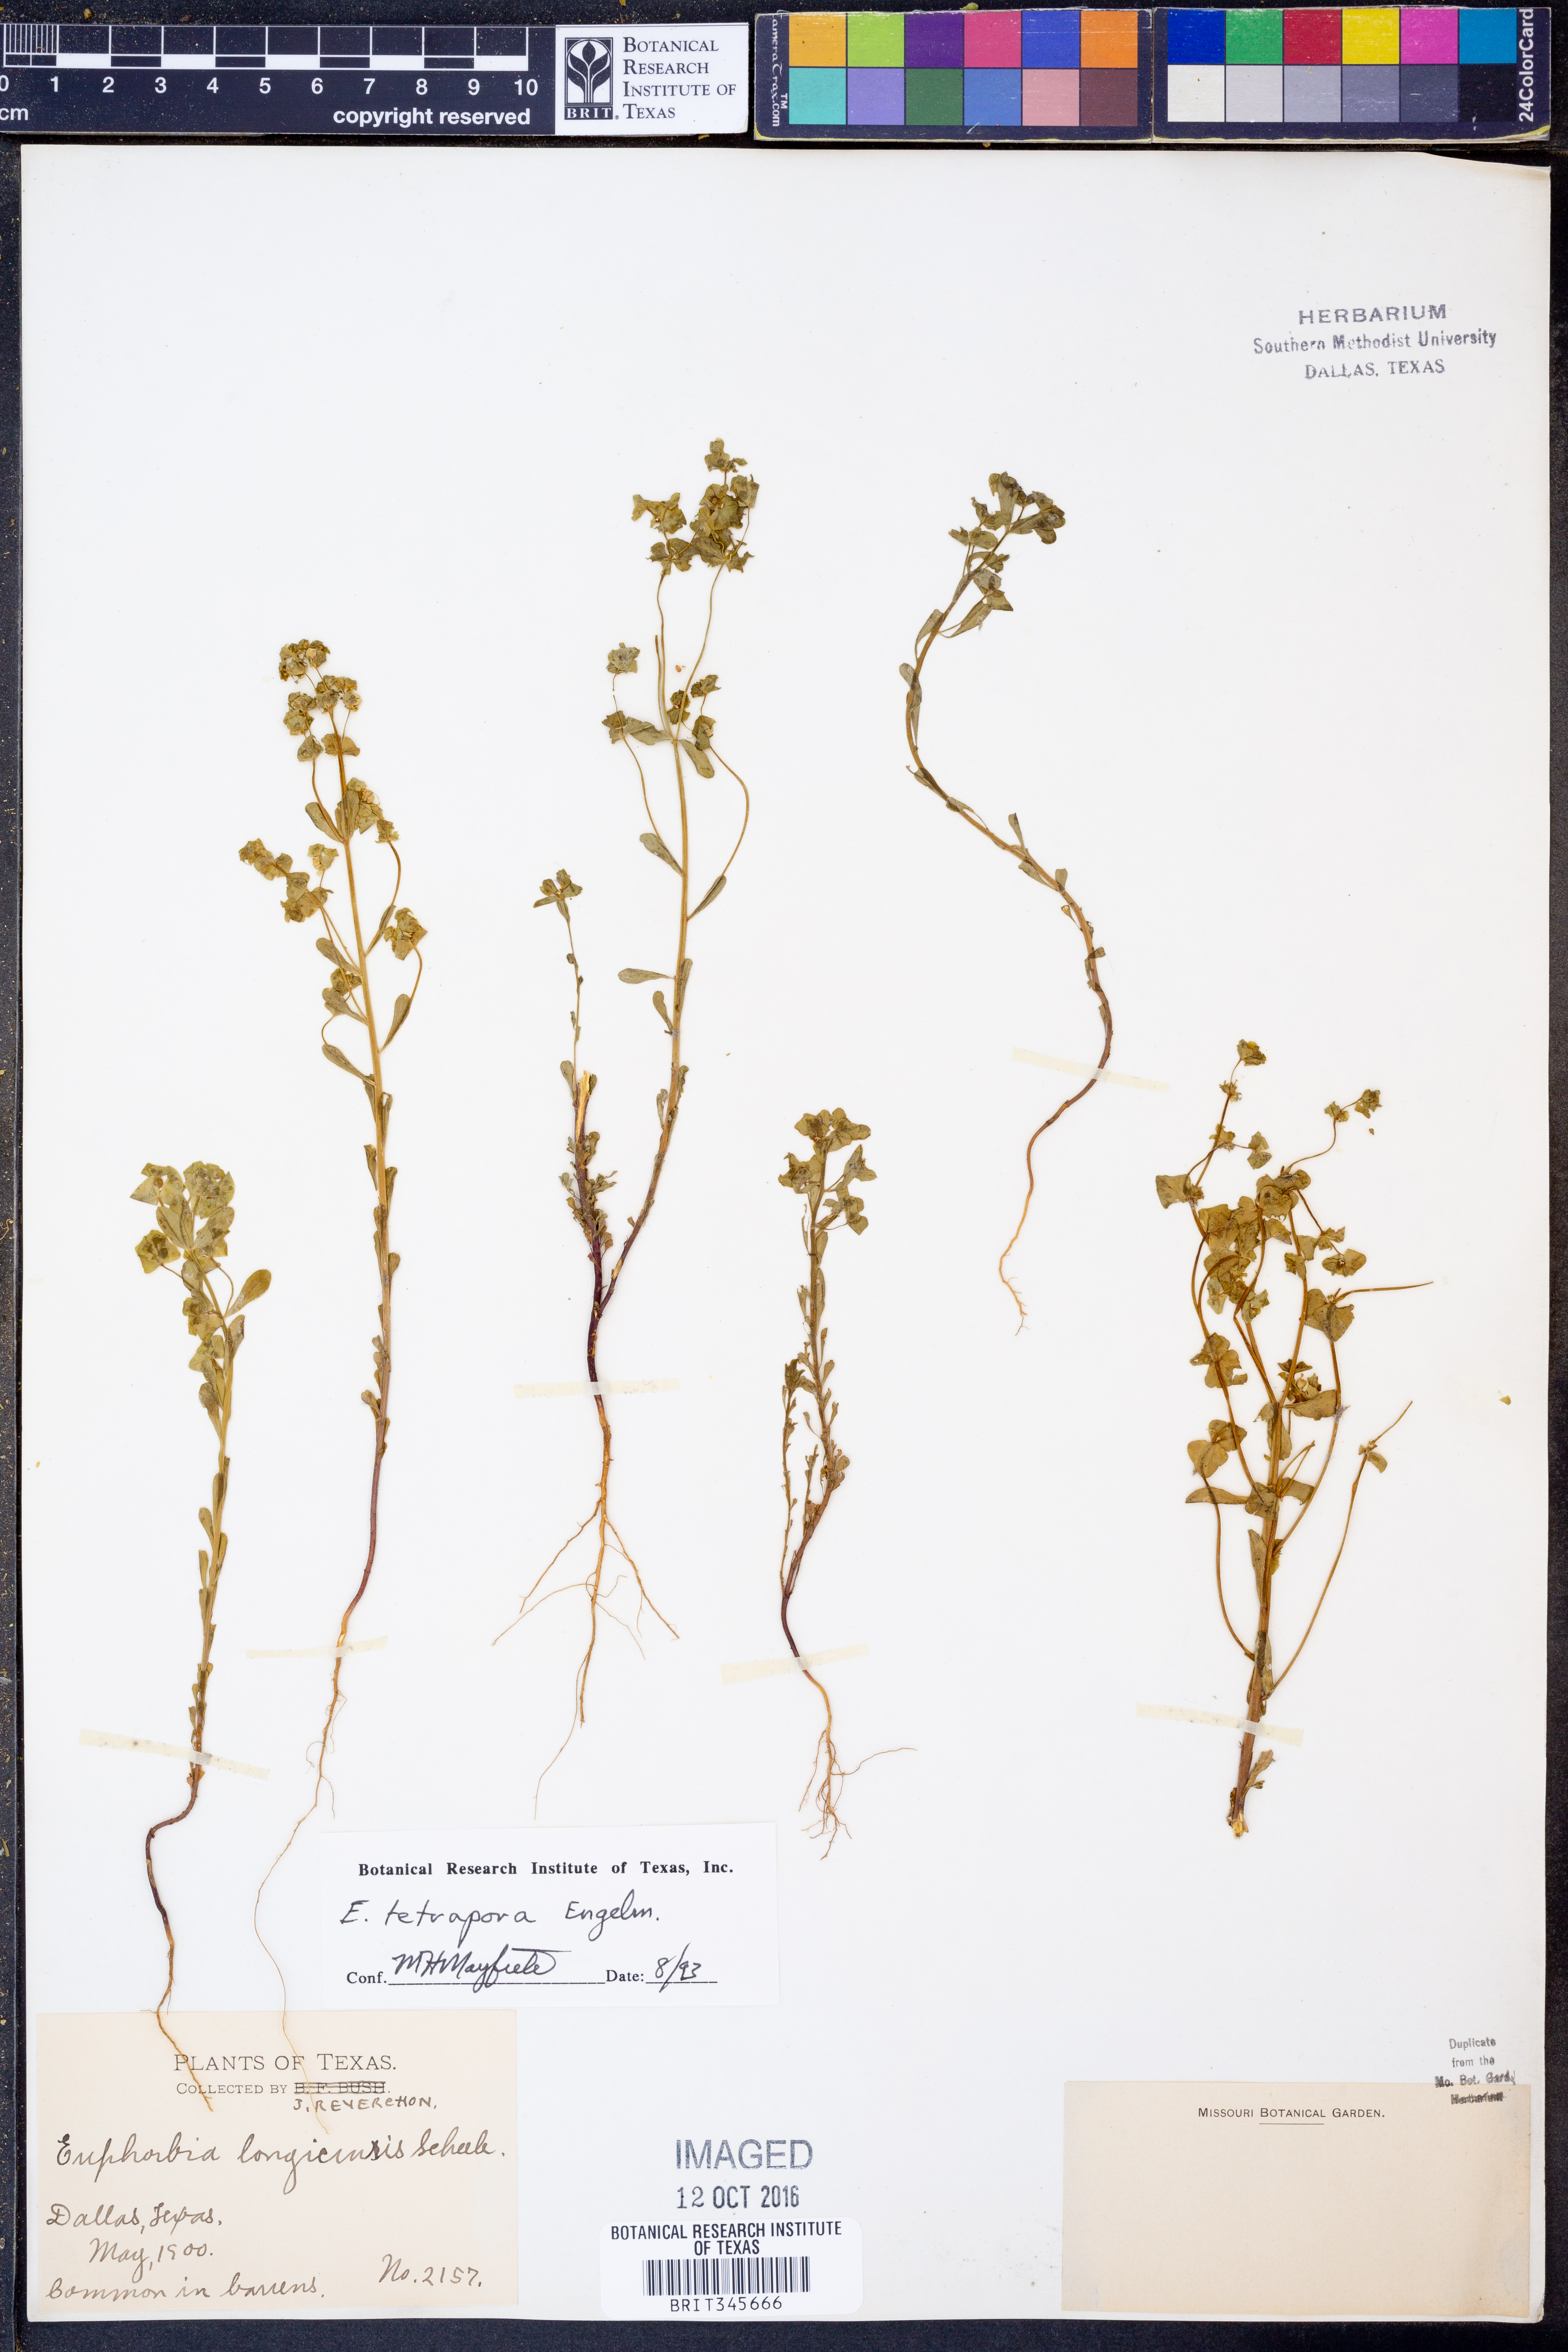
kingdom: Plantae
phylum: Tracheophyta
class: Magnoliopsida
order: Malpighiales
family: Euphorbiaceae
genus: Euphorbia
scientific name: Euphorbia tetrapora
